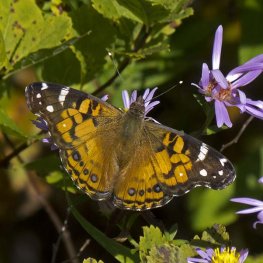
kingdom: Animalia
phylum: Arthropoda
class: Insecta
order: Lepidoptera
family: Nymphalidae
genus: Vanessa
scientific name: Vanessa virginiensis
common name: American Lady
